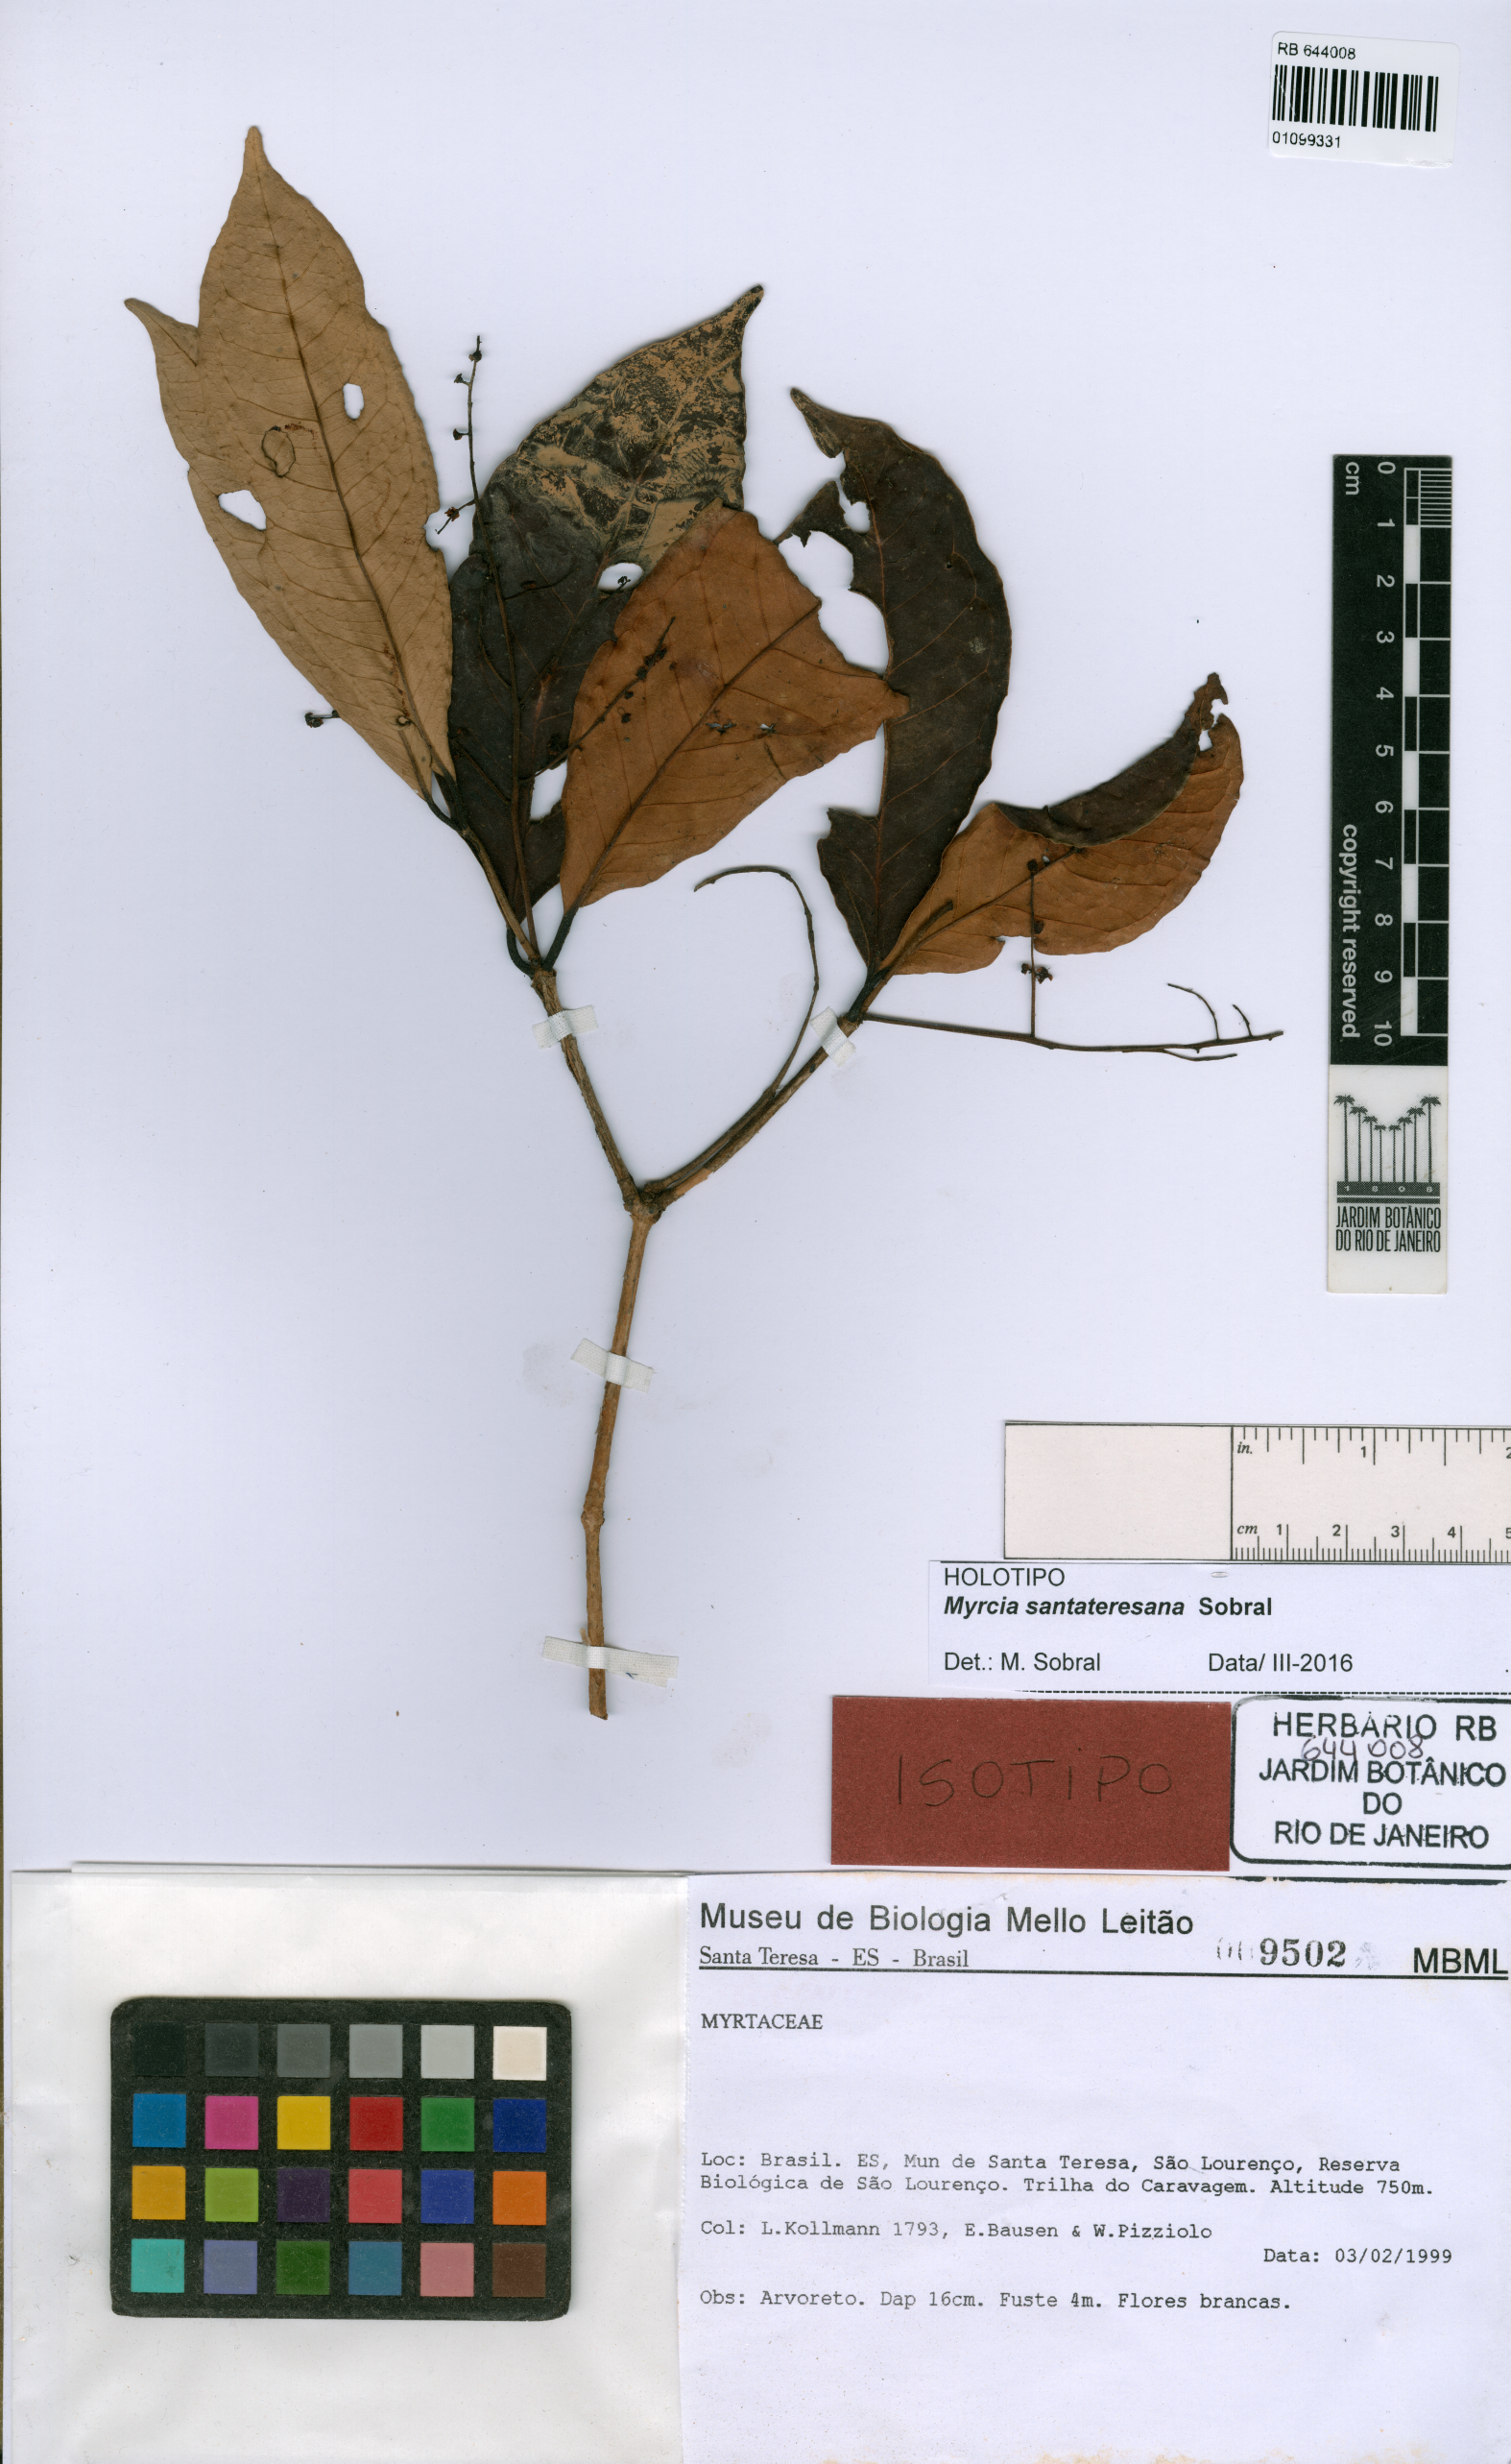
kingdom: Plantae
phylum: Tracheophyta
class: Magnoliopsida
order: Myrtales
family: Myrtaceae
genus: Myrcia
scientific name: Myrcia santateresana
